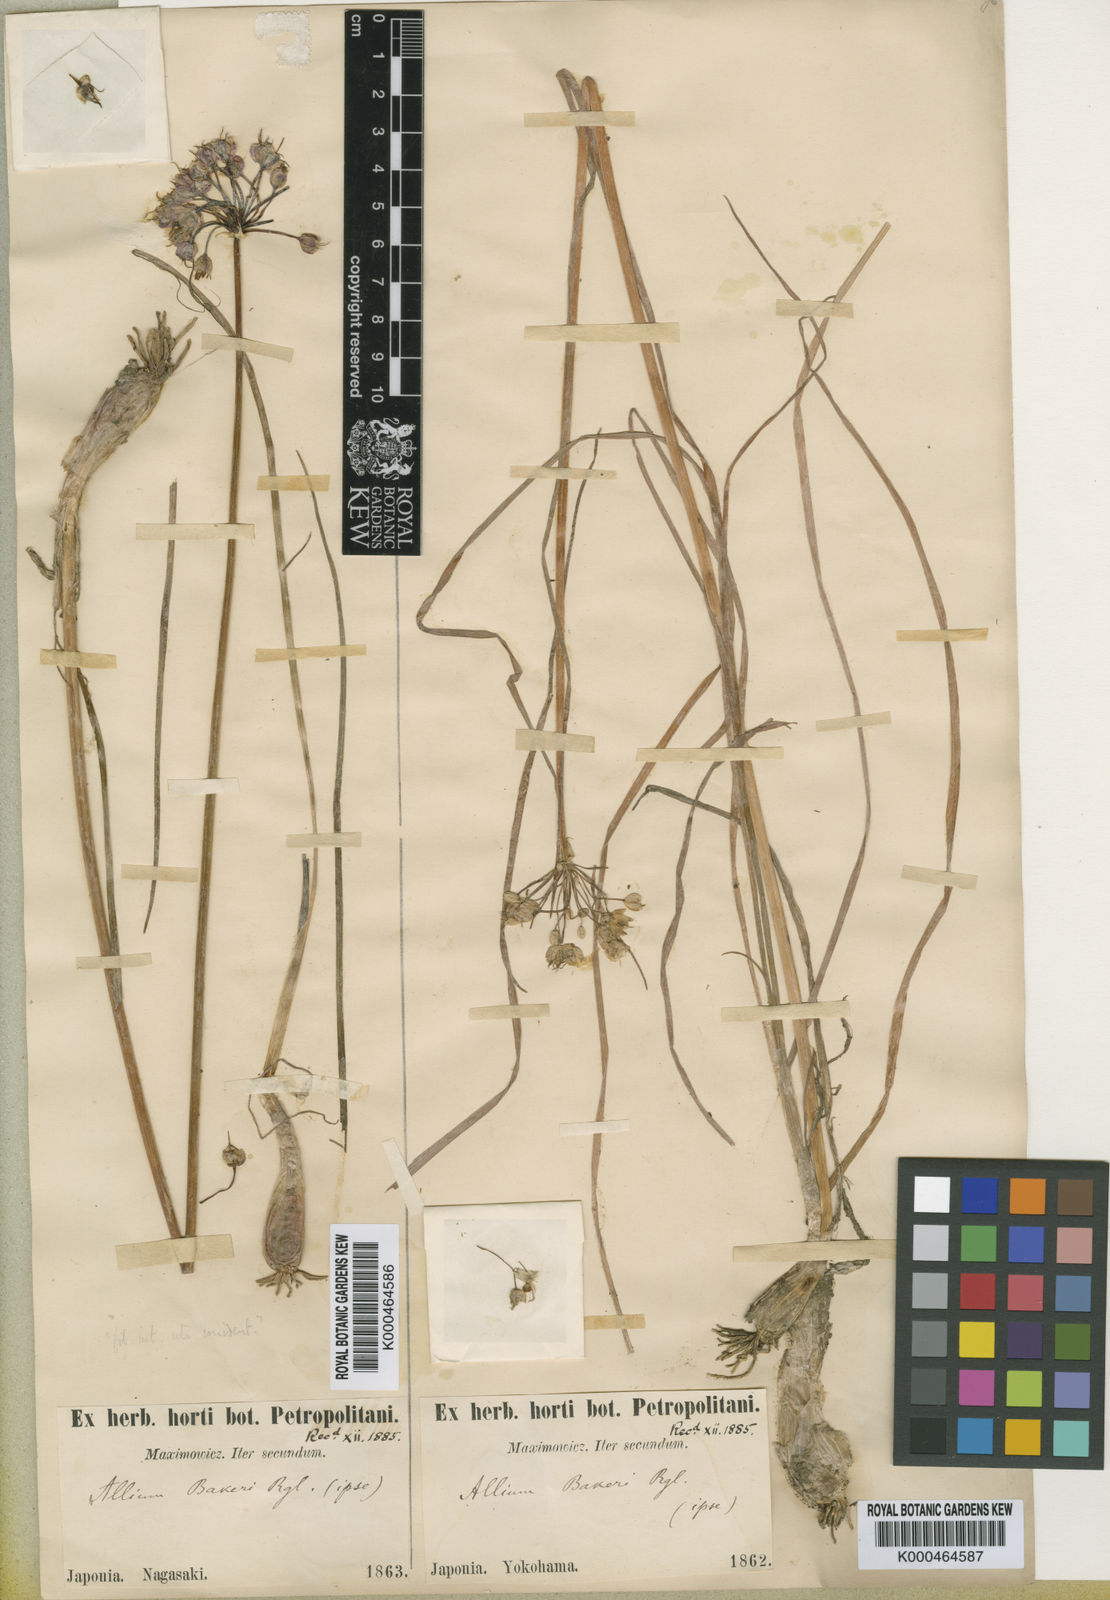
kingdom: Plantae
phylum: Tracheophyta
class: Liliopsida
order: Asparagales
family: Amaryllidaceae
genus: Allium
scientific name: Allium chinense
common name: Japanese scallion
